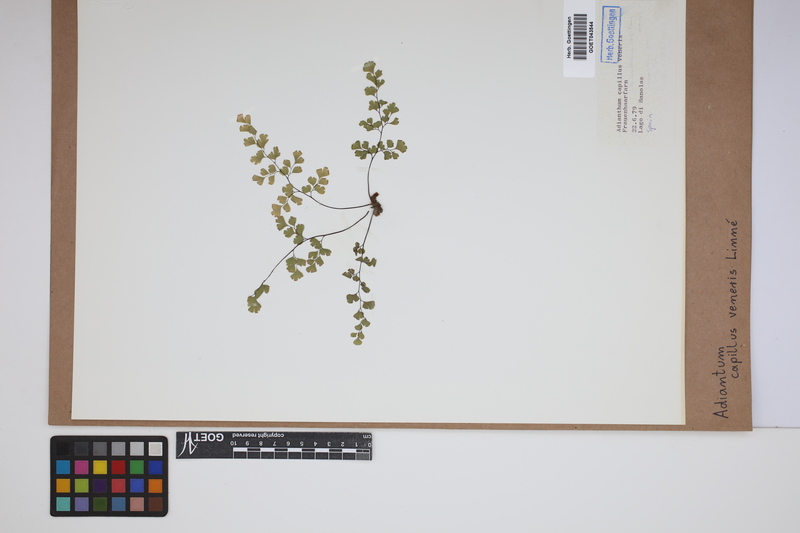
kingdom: Plantae
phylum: Tracheophyta
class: Polypodiopsida
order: Polypodiales
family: Pteridaceae
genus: Adiantum
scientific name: Adiantum capillus-veneris
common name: Maidenhair fern
